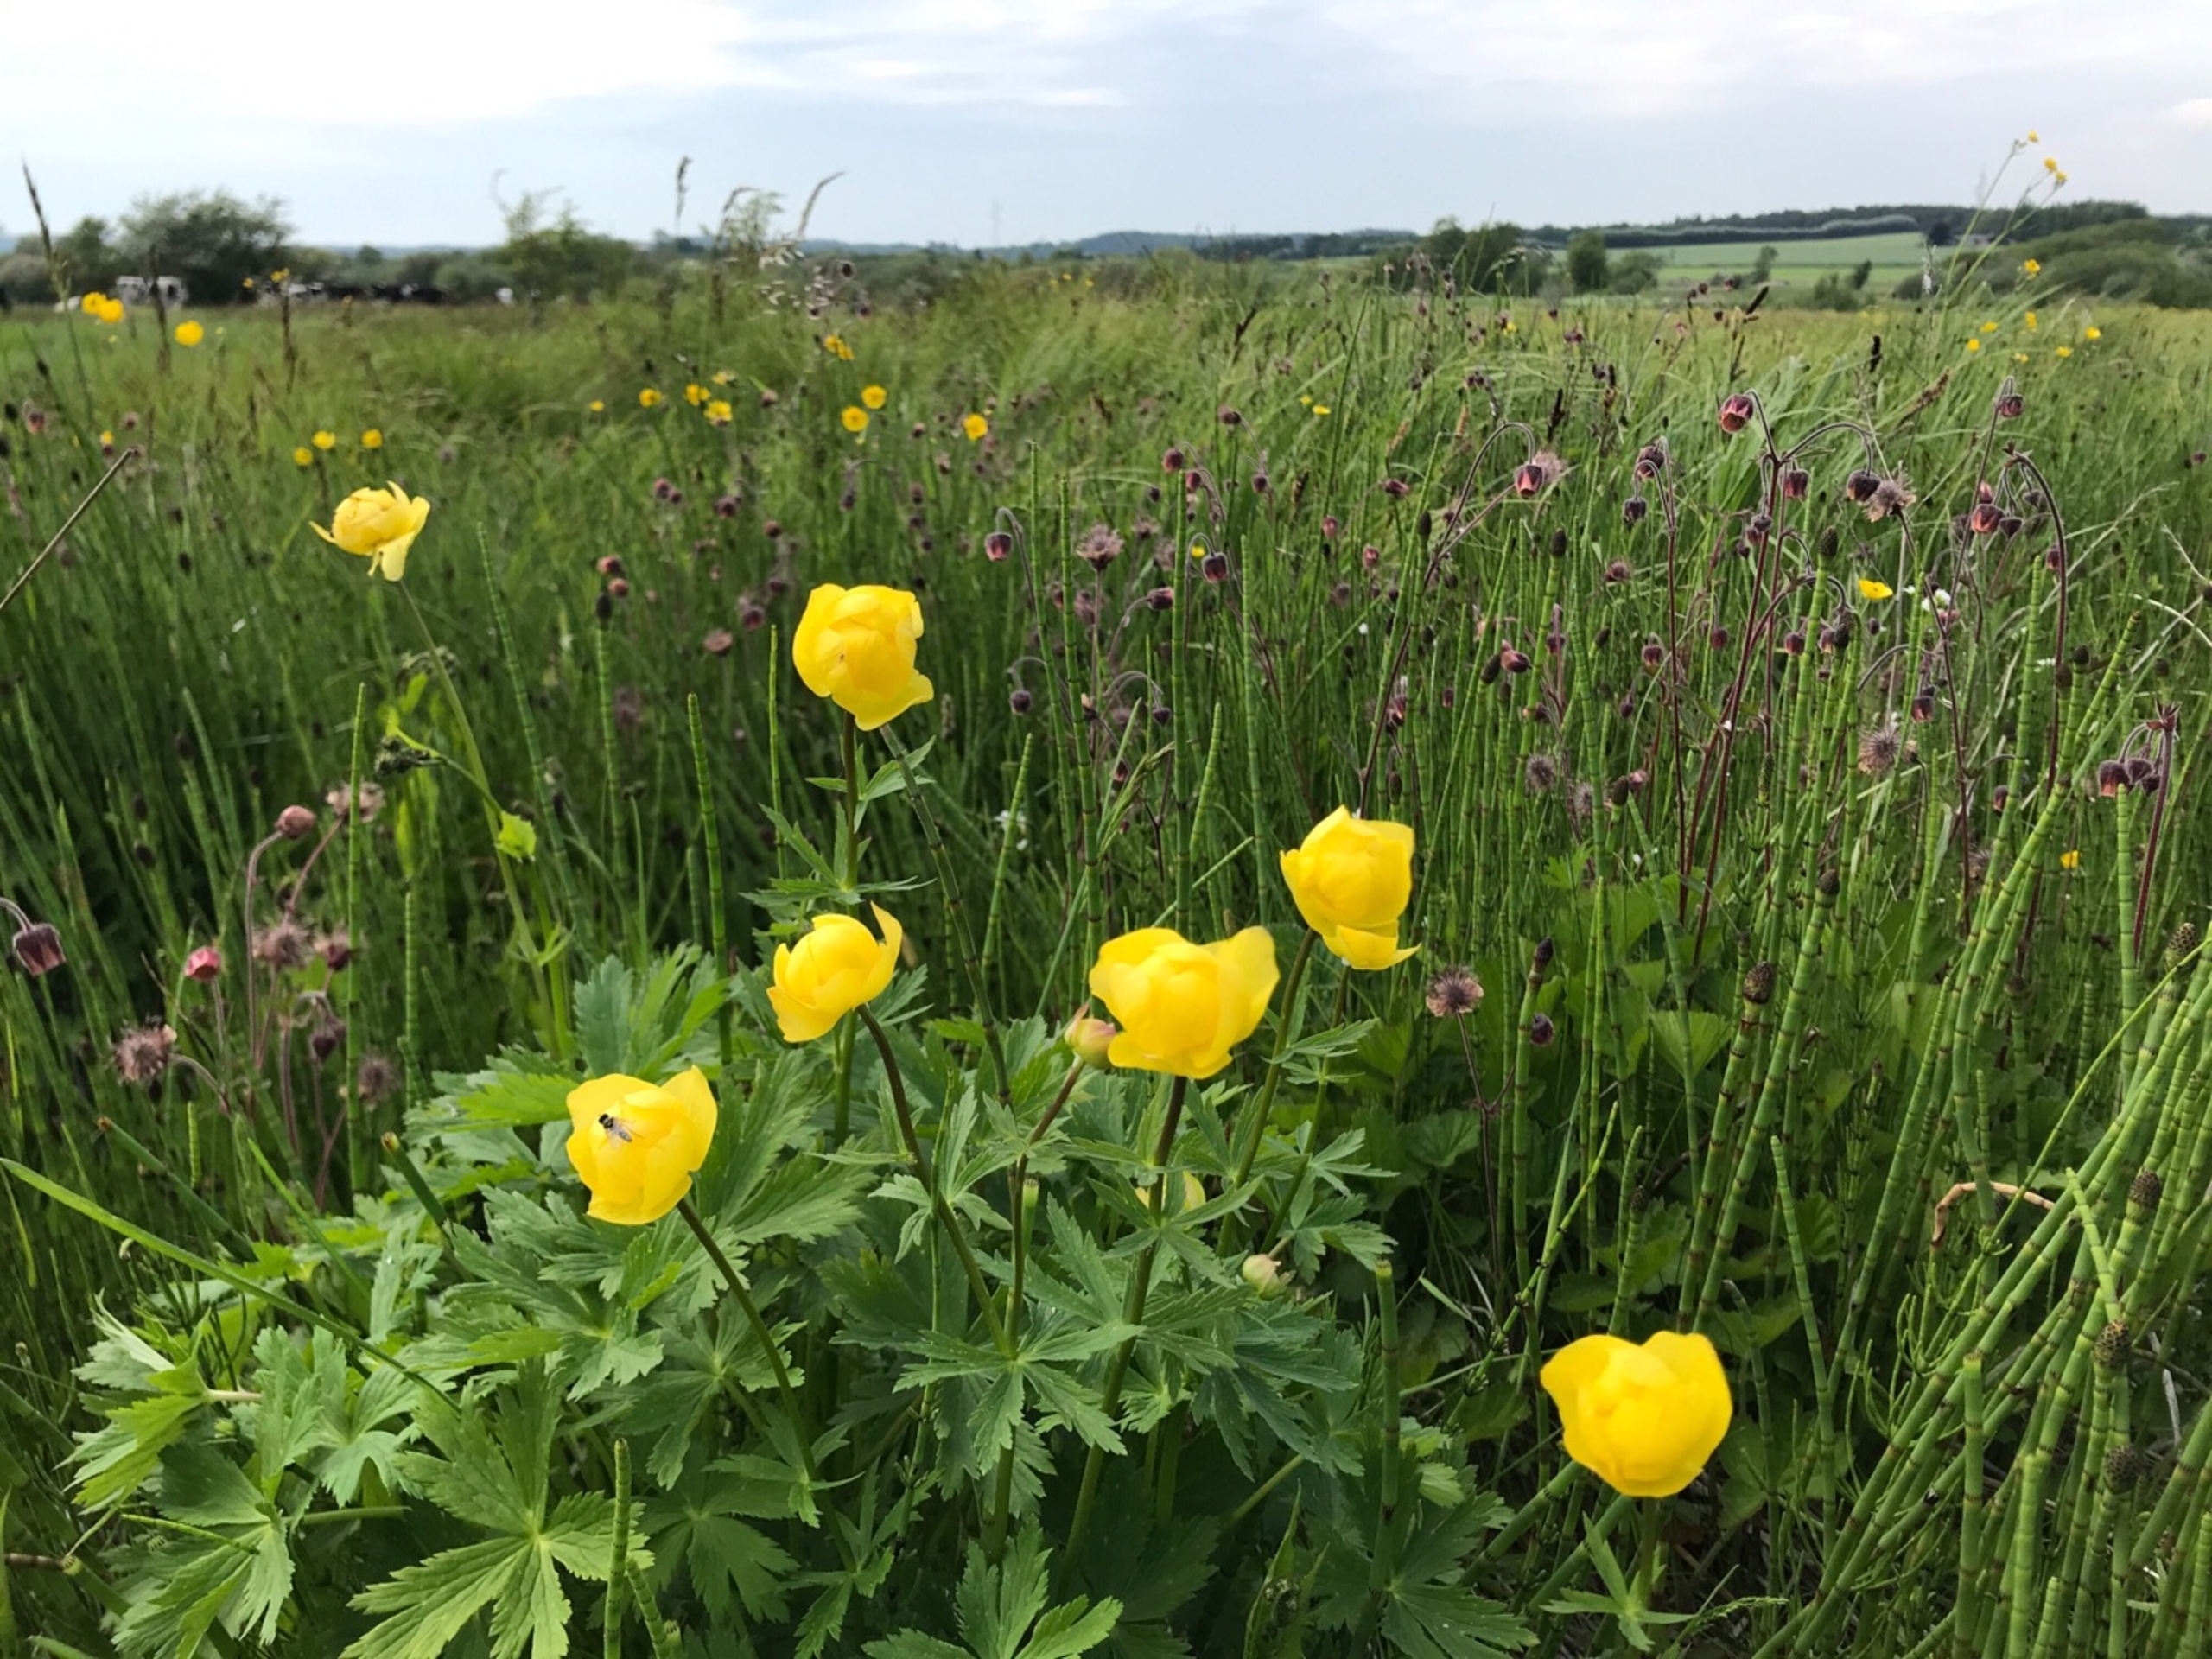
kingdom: Plantae
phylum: Tracheophyta
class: Magnoliopsida
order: Ranunculales
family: Ranunculaceae
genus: Trollius
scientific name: Trollius europaeus
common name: Engblomme
